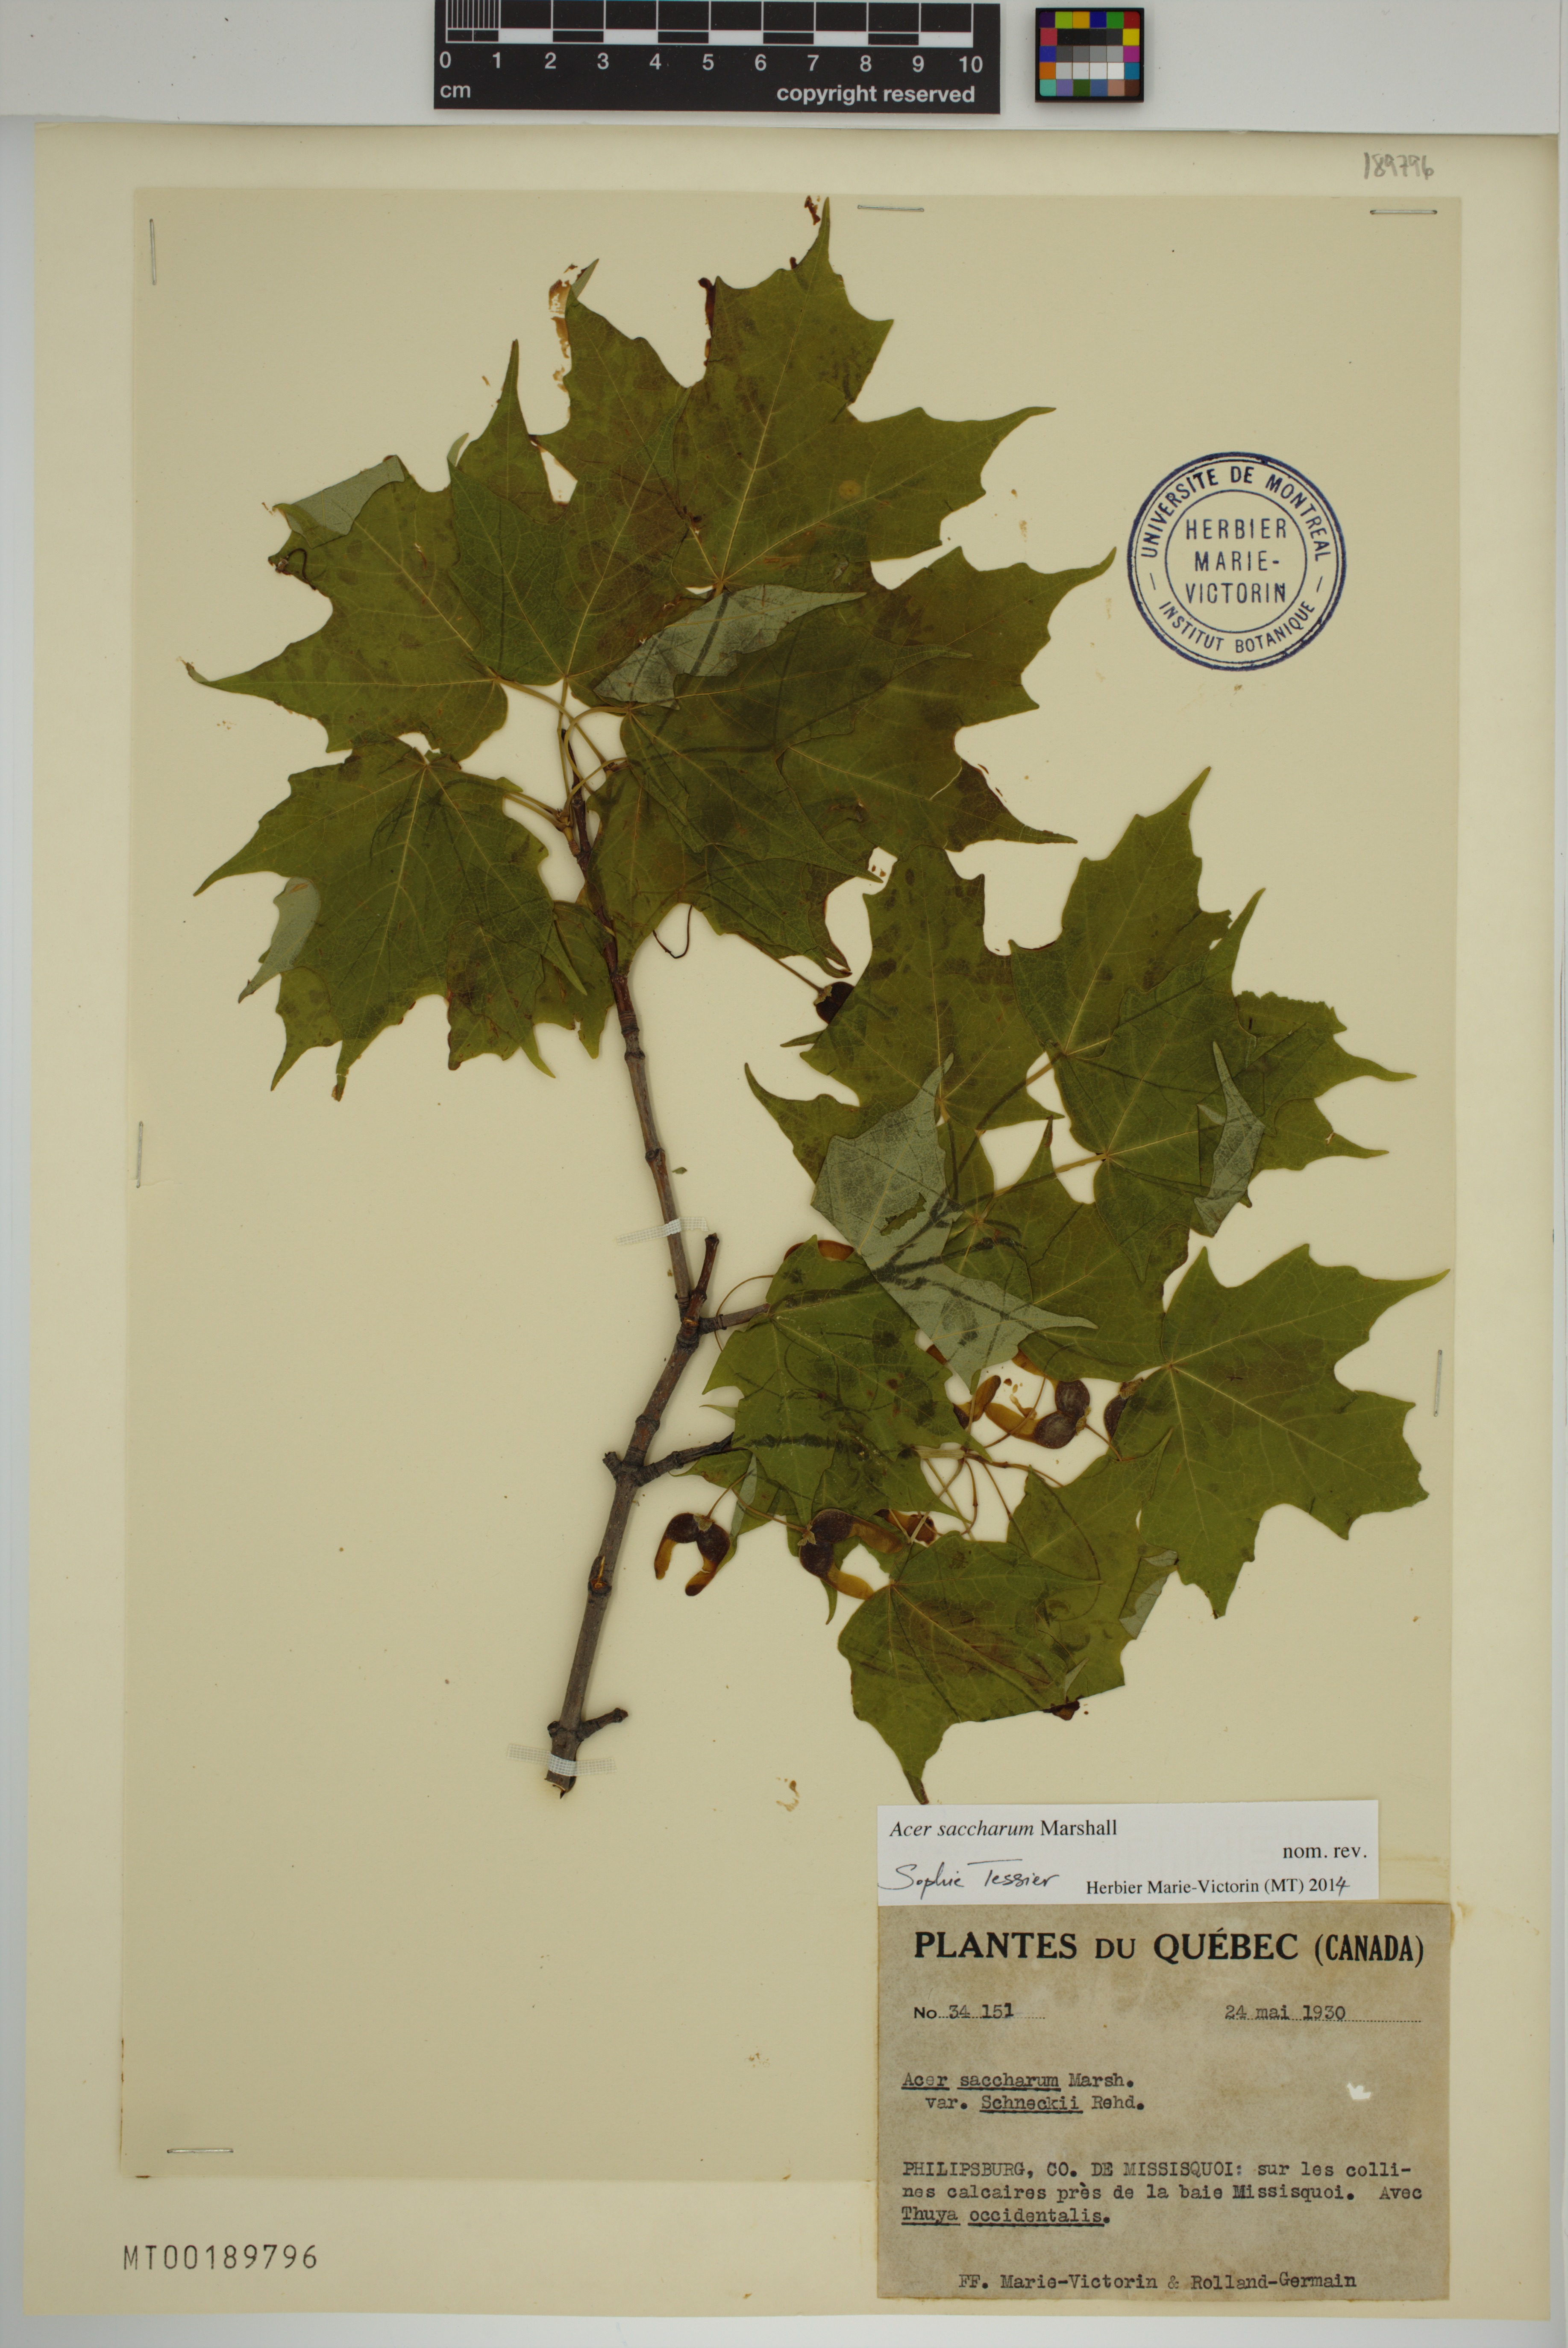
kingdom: Plantae
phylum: Tracheophyta
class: Magnoliopsida
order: Sapindales
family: Sapindaceae
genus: Acer
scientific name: Acer saccharum
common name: Sugar maple
